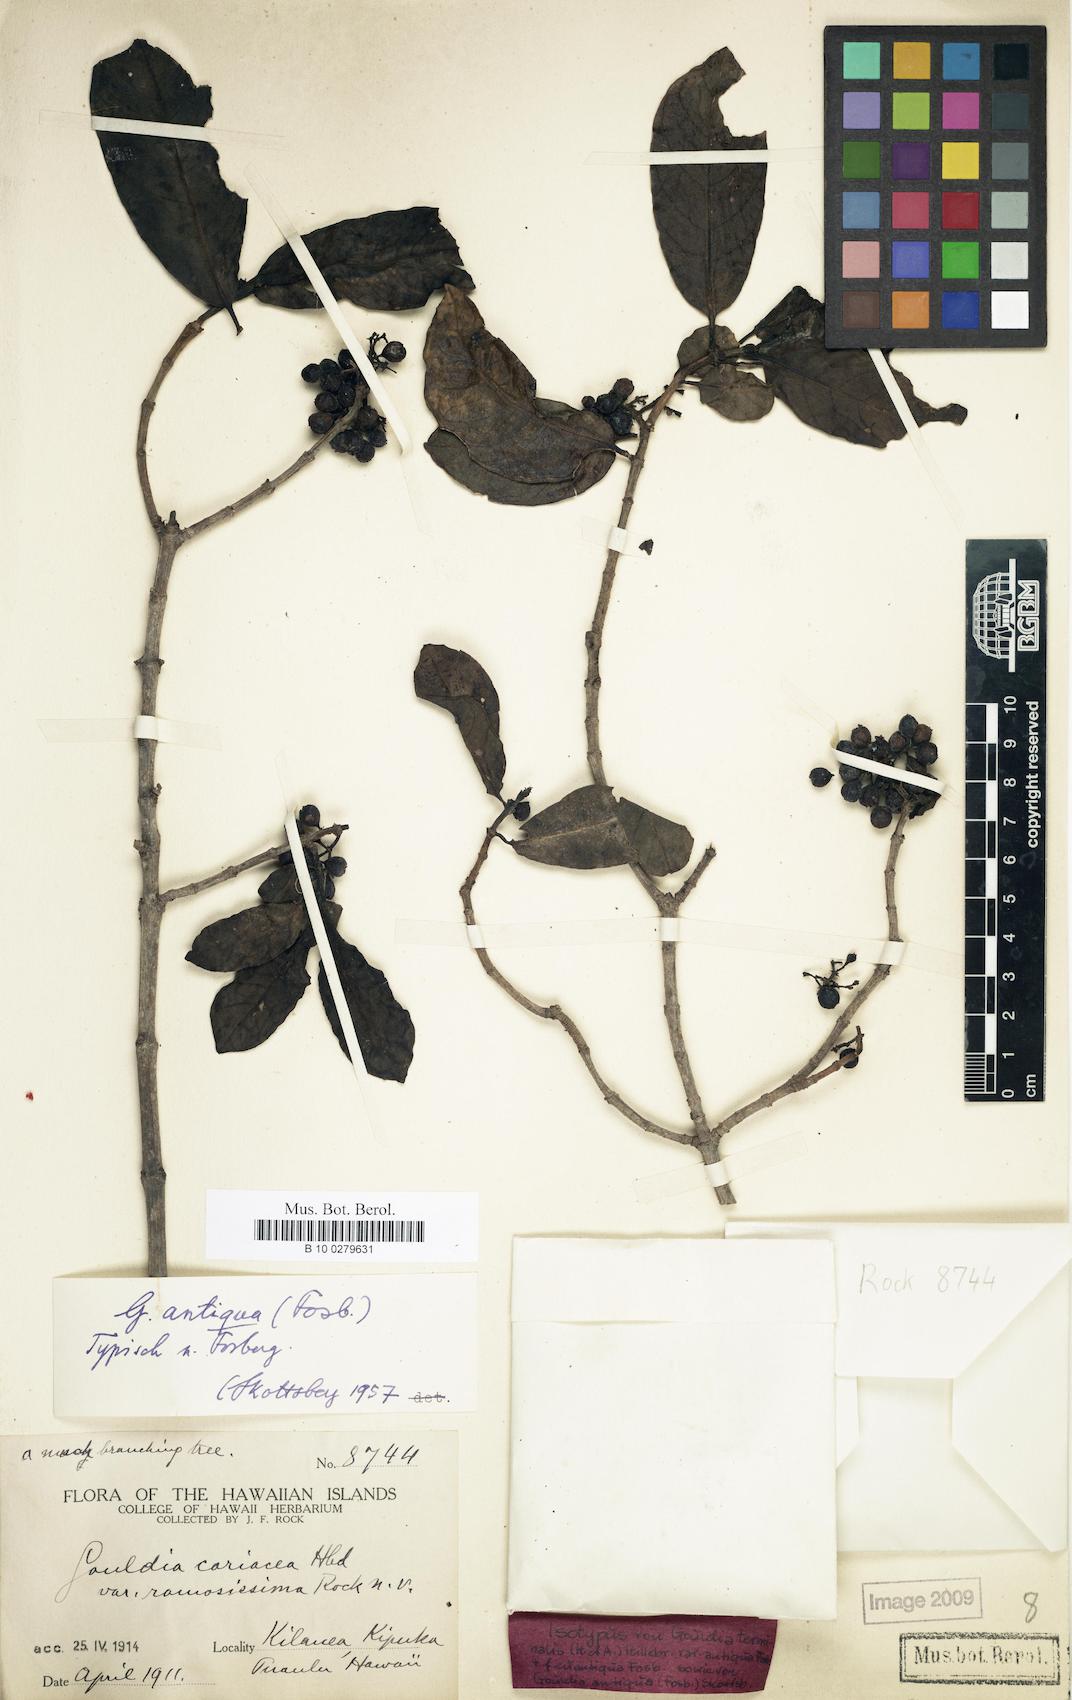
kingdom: Plantae
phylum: Tracheophyta
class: Magnoliopsida
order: Gentianales
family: Rubiaceae
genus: Kadua
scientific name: Kadua affinis
